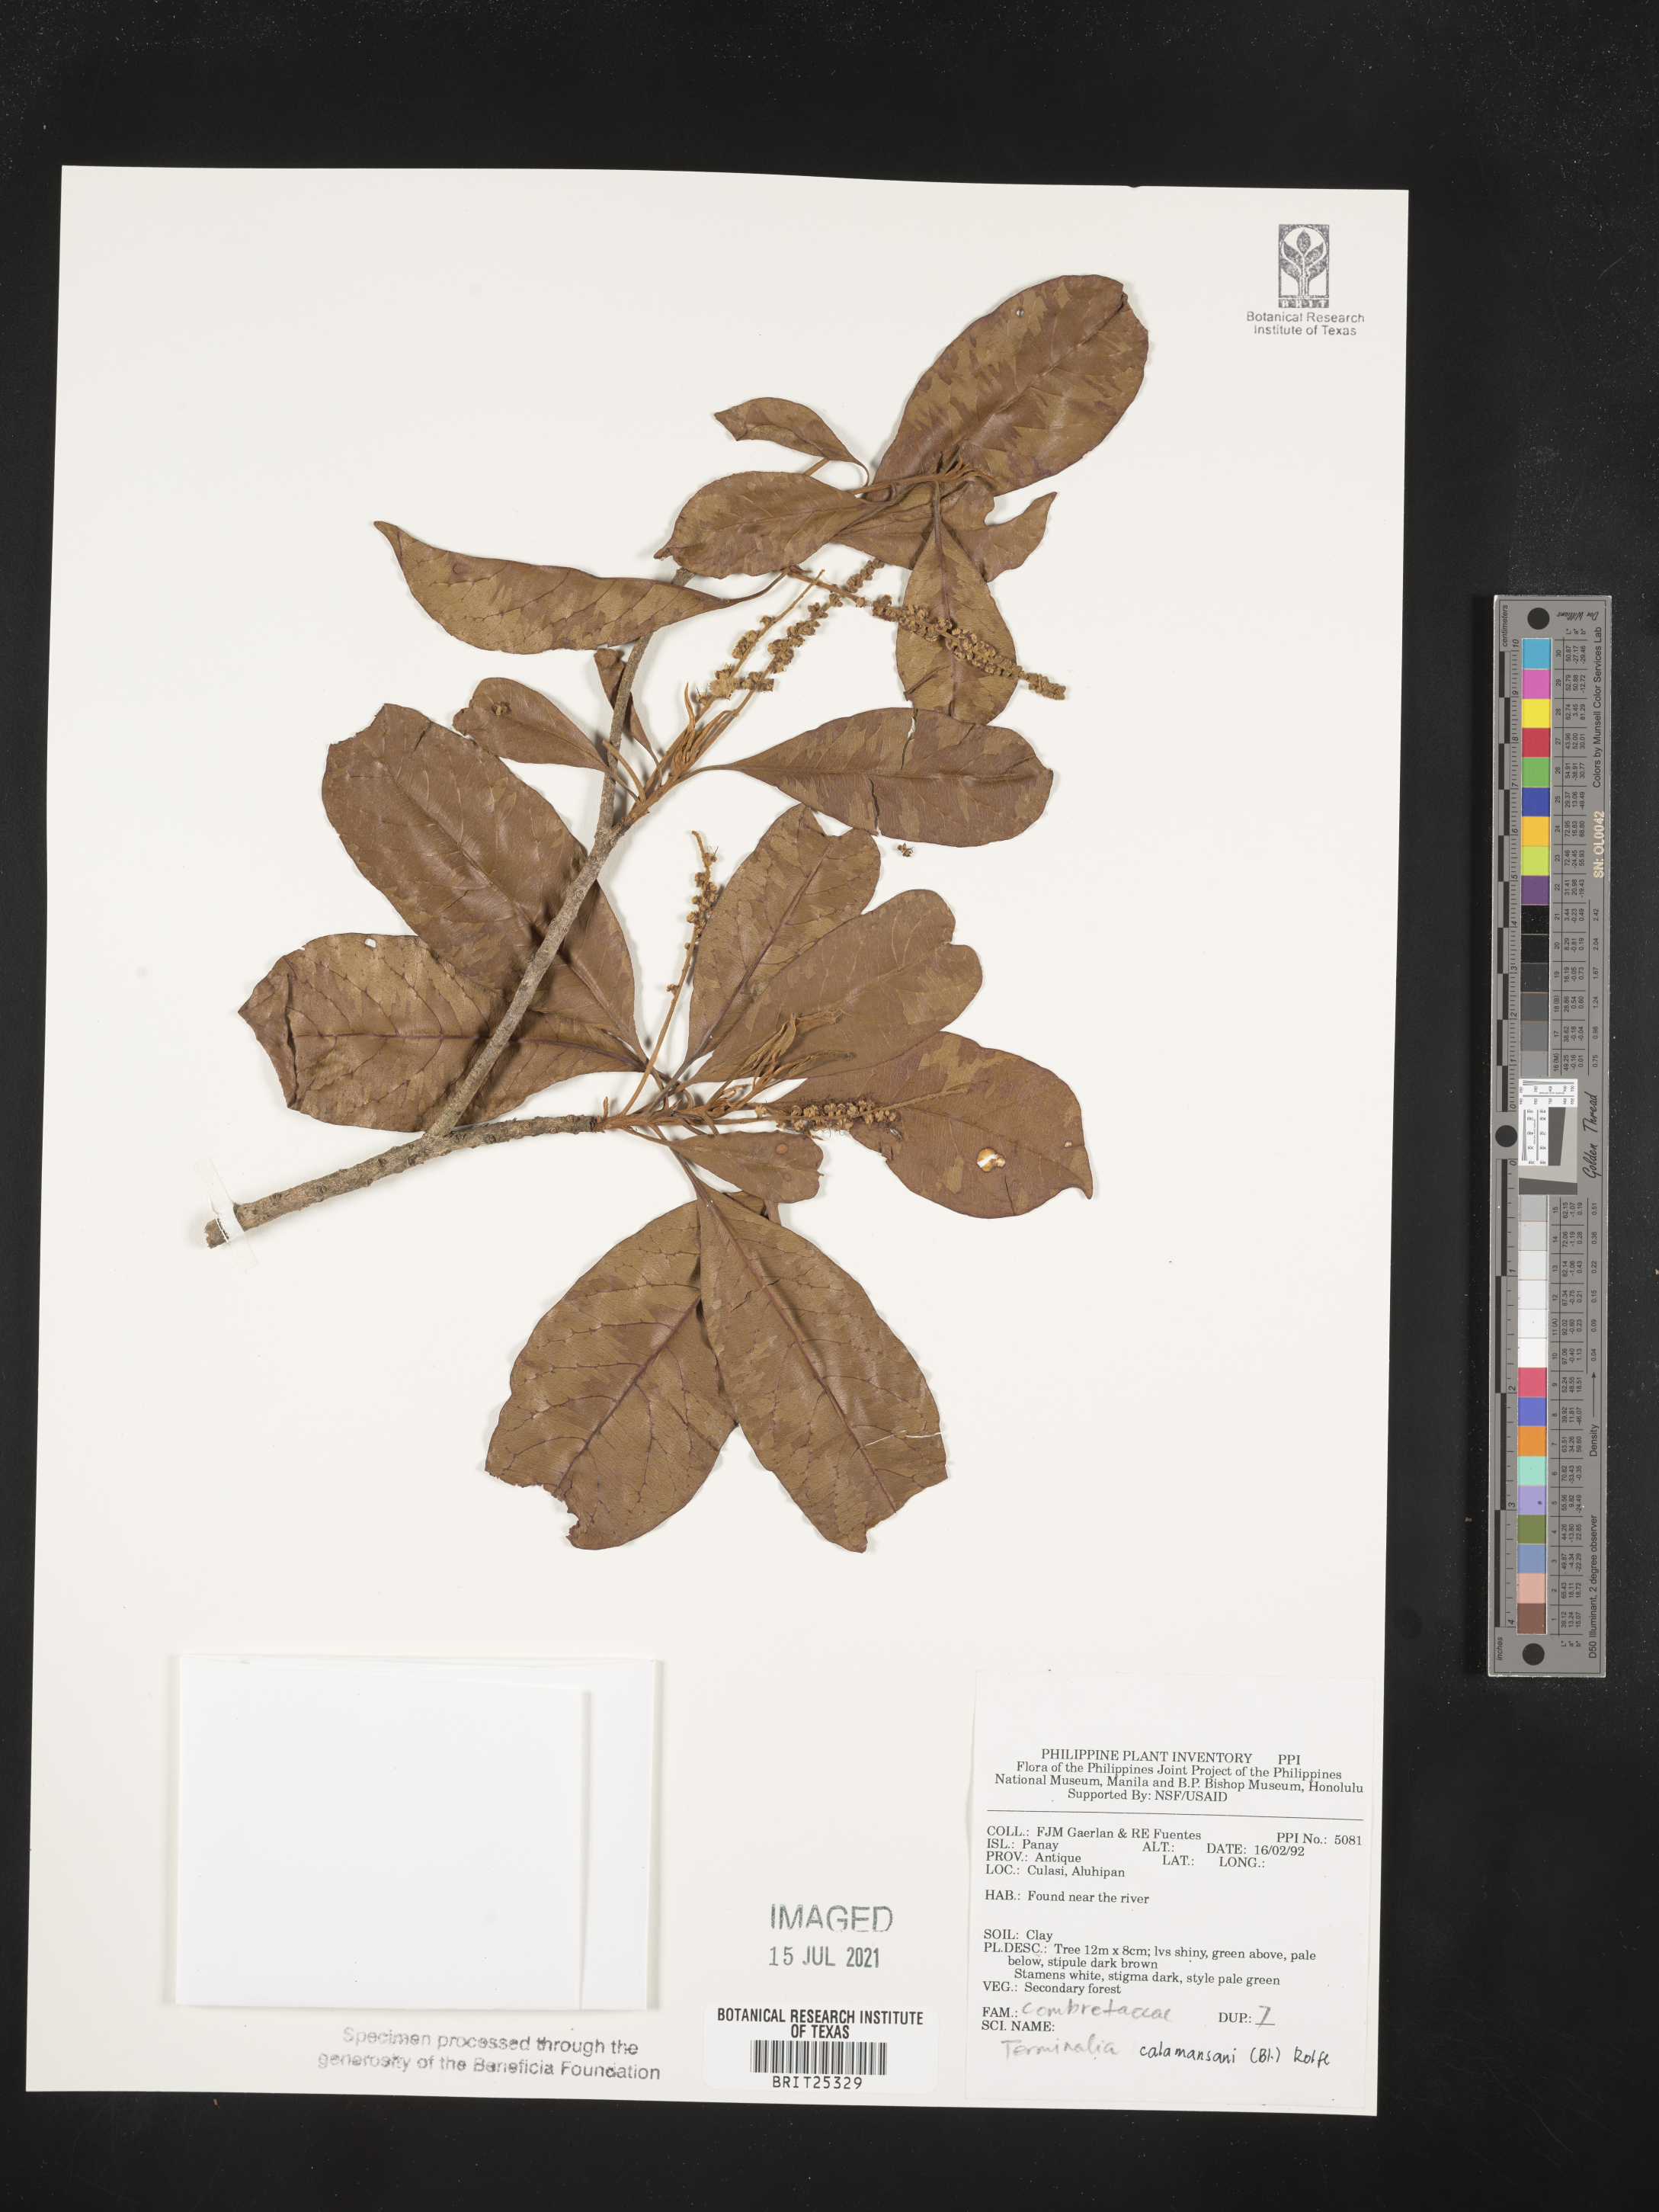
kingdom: Plantae
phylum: Tracheophyta
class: Magnoliopsida
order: Myrtales
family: Combretaceae
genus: Terminalia
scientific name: Terminalia calamansanai
